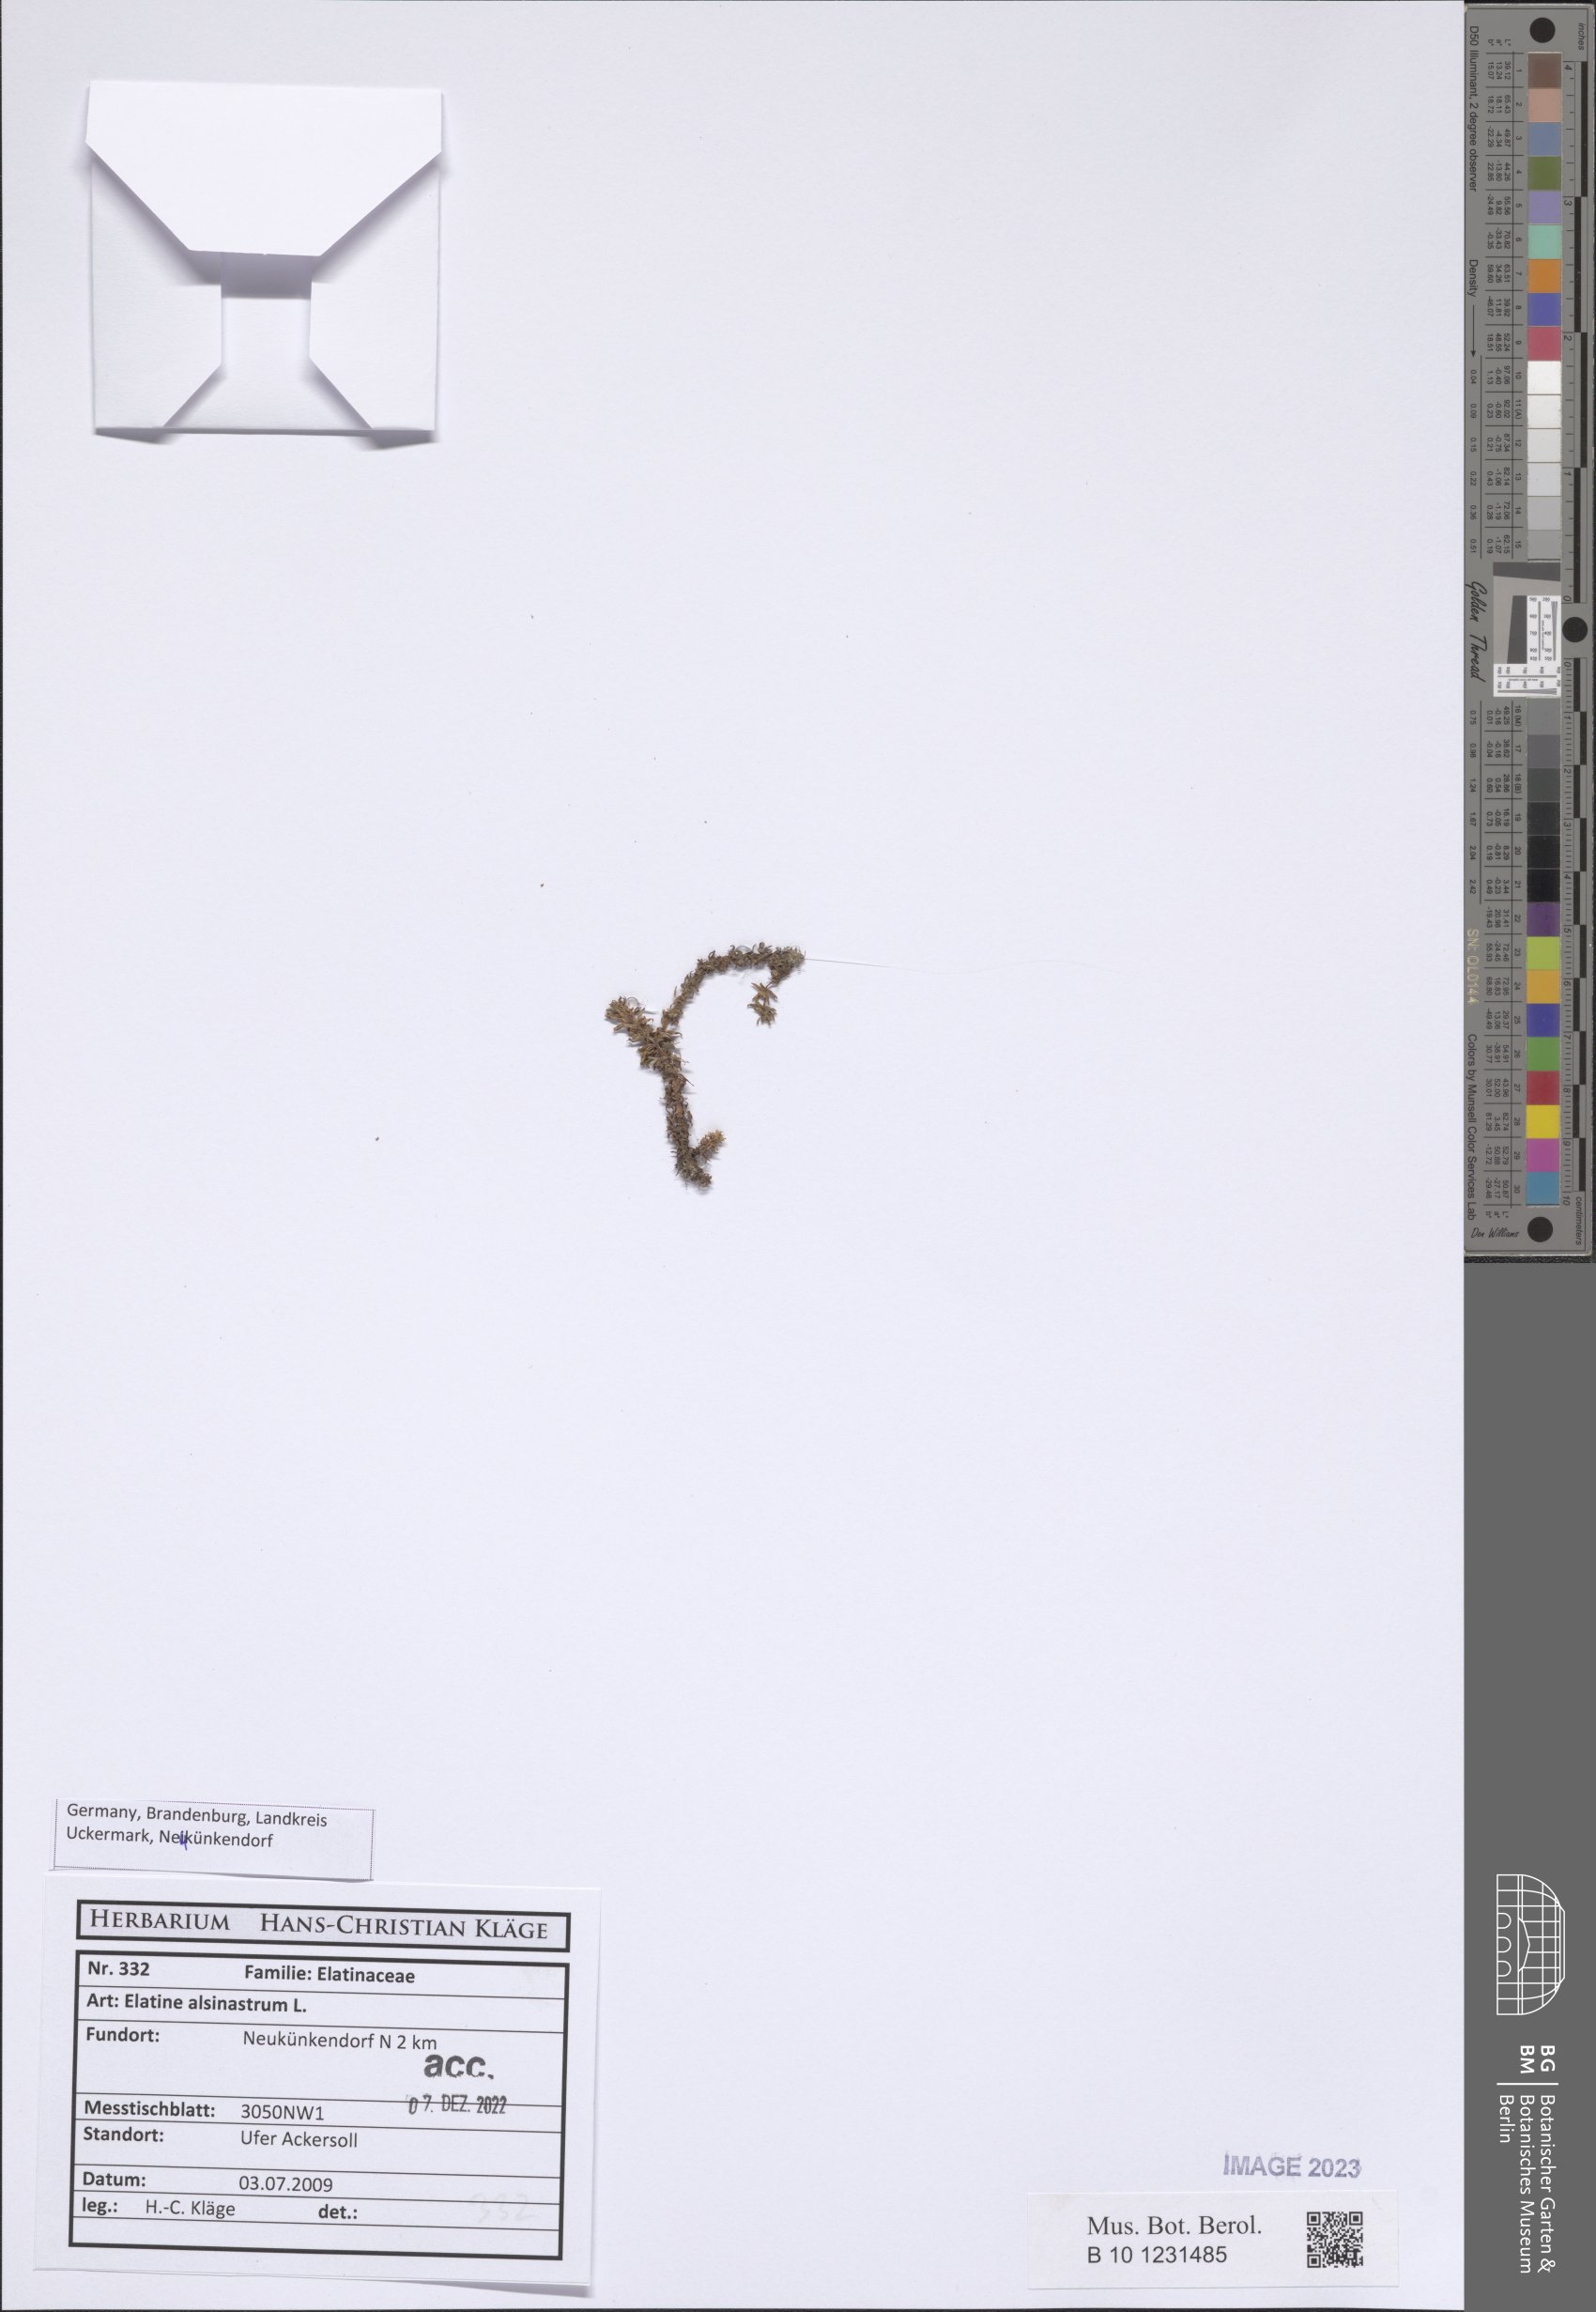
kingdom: Plantae
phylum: Tracheophyta
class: Magnoliopsida
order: Malpighiales
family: Elatinaceae
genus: Elatine
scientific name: Elatine alsinastrum
